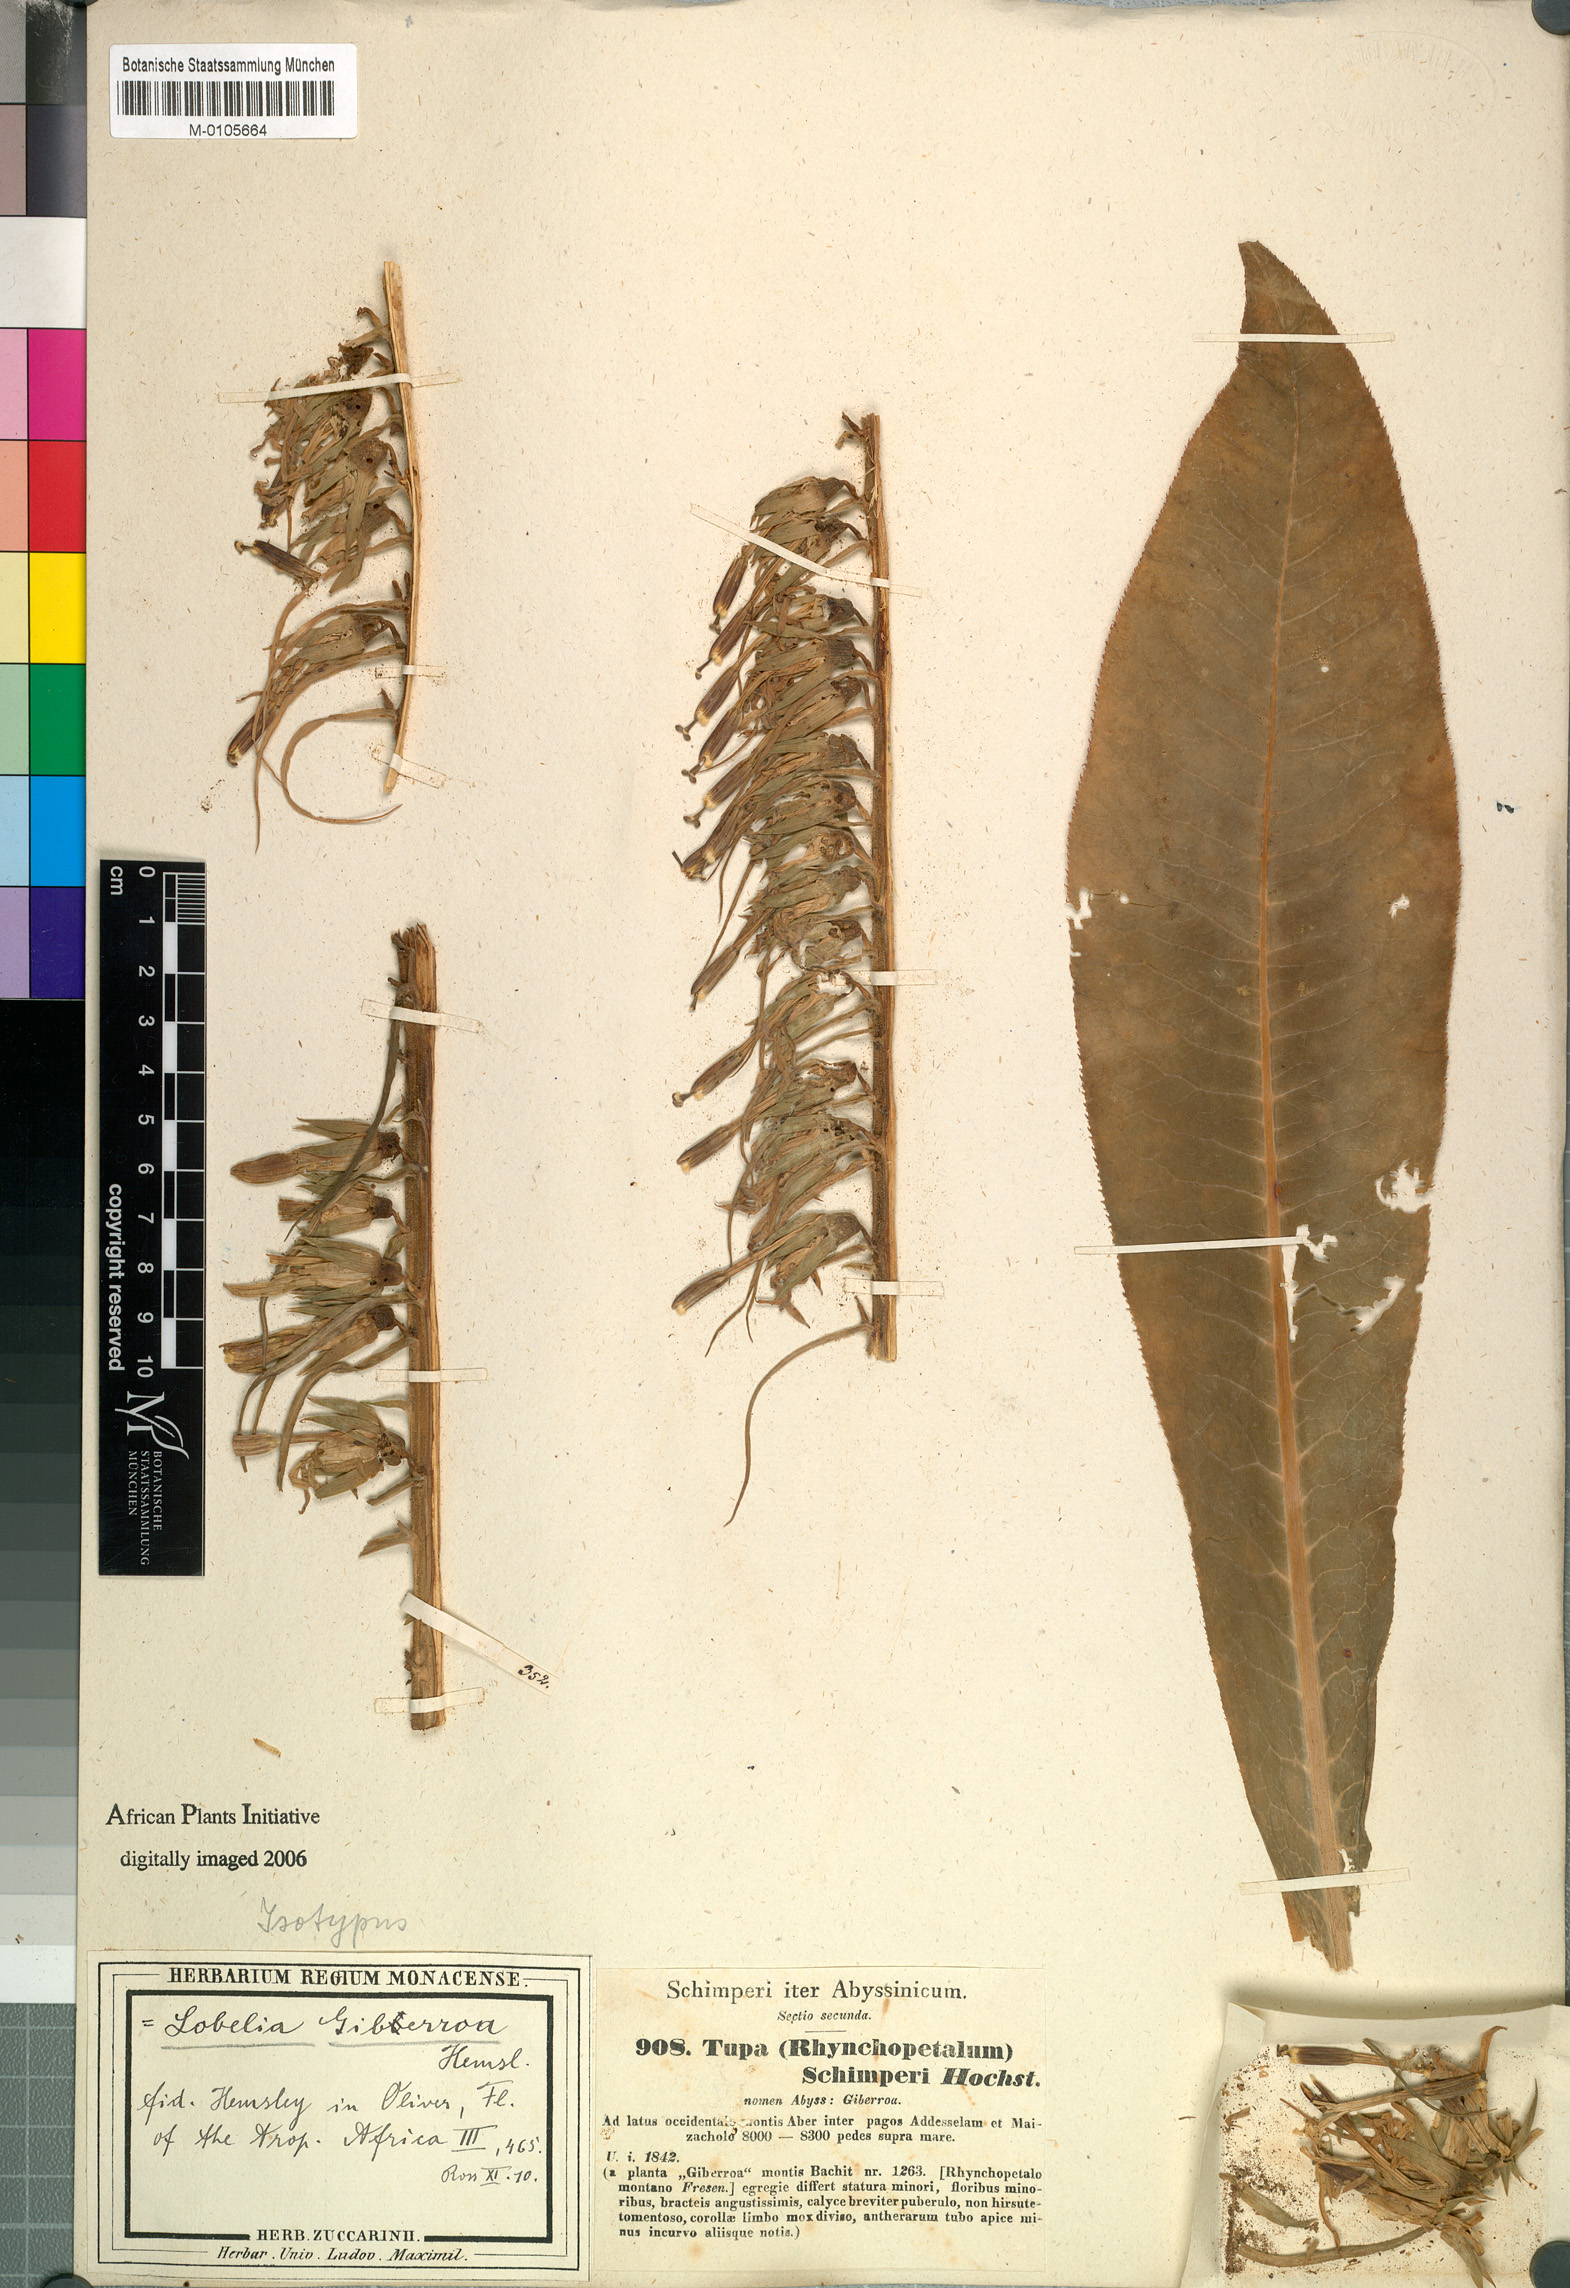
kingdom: Plantae
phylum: Tracheophyta
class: Magnoliopsida
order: Asterales
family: Campanulaceae
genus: Lobelia
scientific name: Lobelia giberroa
